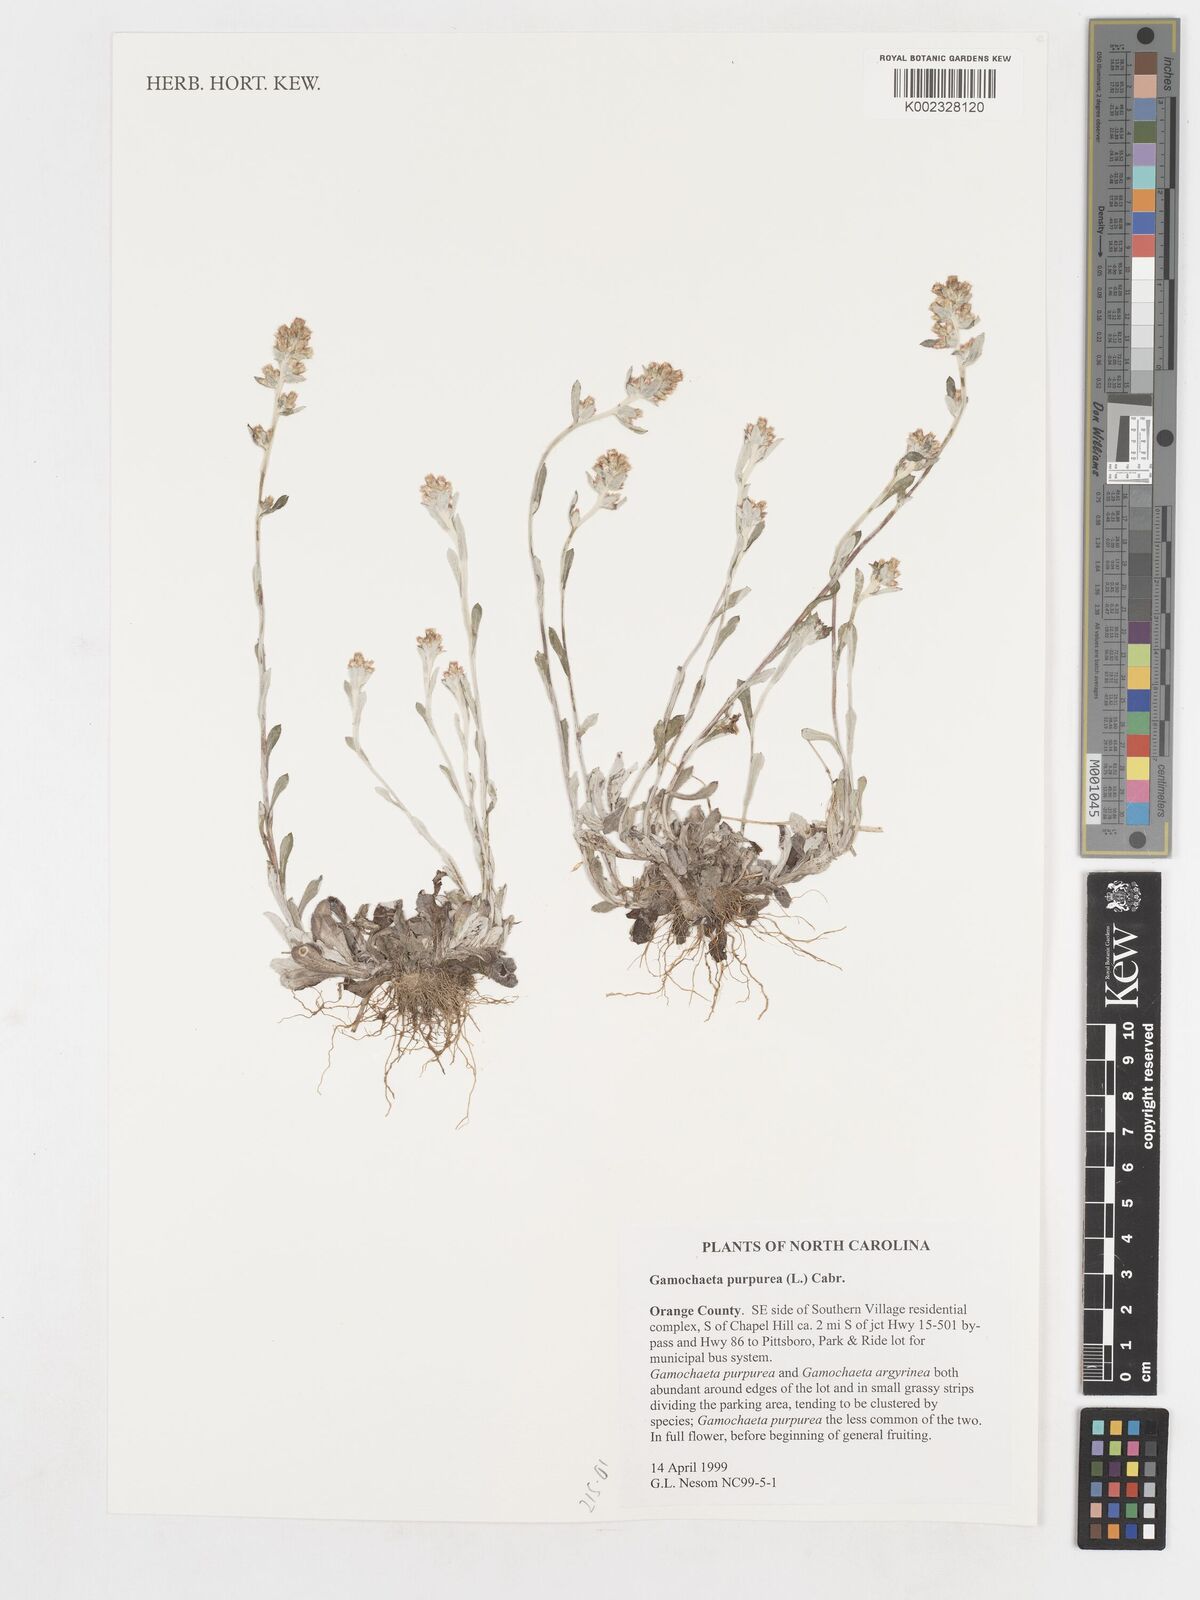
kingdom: Plantae
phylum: Tracheophyta
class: Magnoliopsida
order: Asterales
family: Asteraceae
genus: Gamochaeta
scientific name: Gamochaeta purpurea
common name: Purple cudweed
